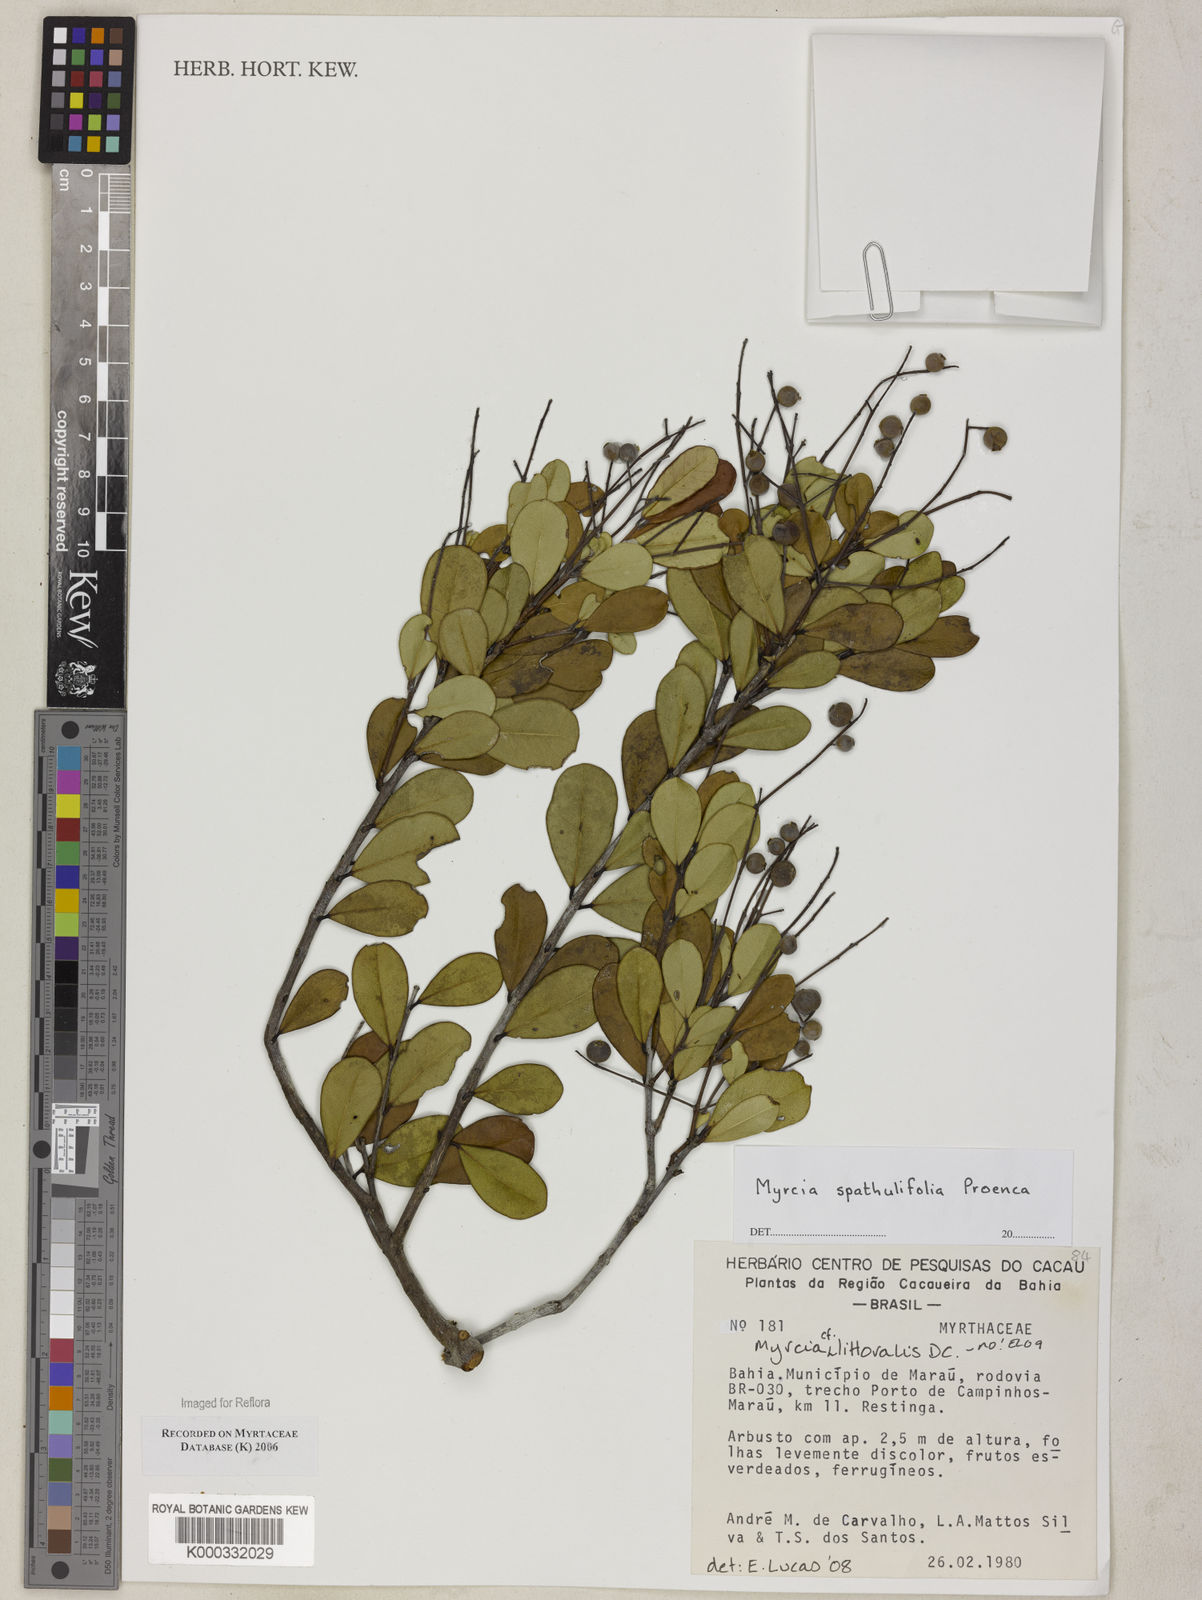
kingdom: Plantae
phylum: Tracheophyta
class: Magnoliopsida
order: Myrtales
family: Myrtaceae
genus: Myrcia
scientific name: Myrcia
